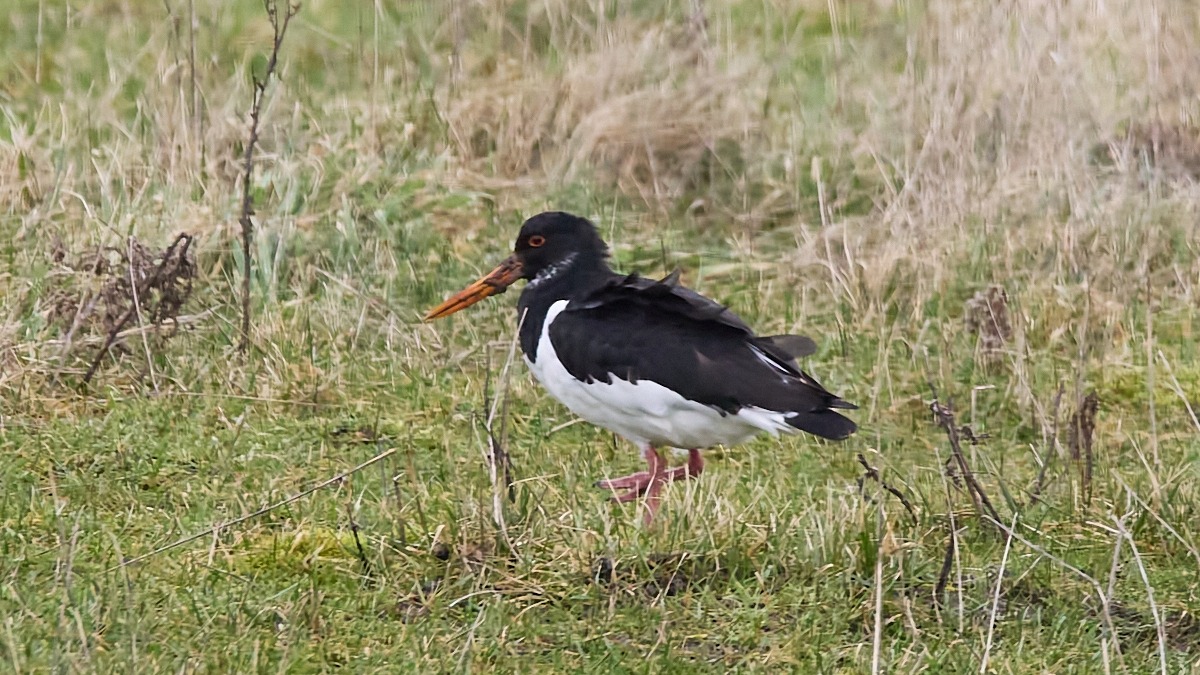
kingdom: Animalia
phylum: Chordata
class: Aves
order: Charadriiformes
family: Haematopodidae
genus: Haematopus
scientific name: Haematopus ostralegus
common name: Strandskade
